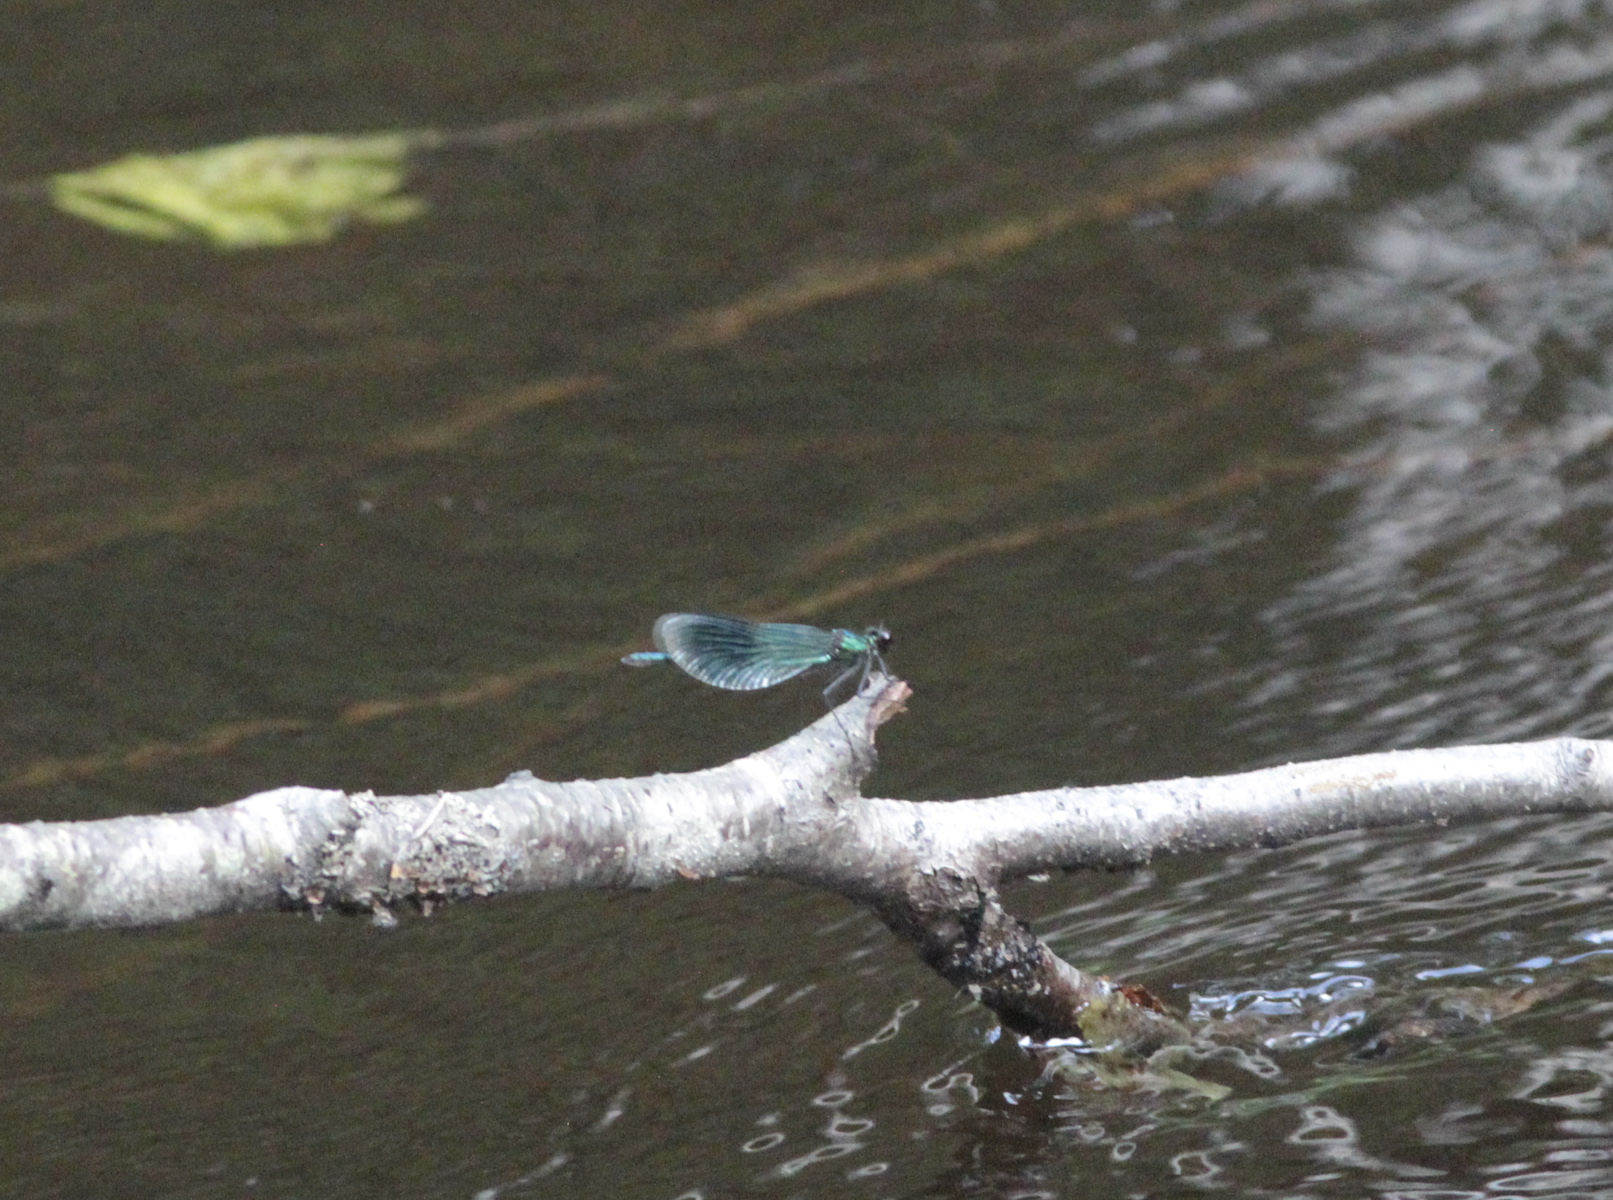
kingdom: Animalia
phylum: Arthropoda
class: Insecta
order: Odonata
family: Calopterygidae
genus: Calopteryx
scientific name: Calopteryx splendens
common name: Banded demoiselle
